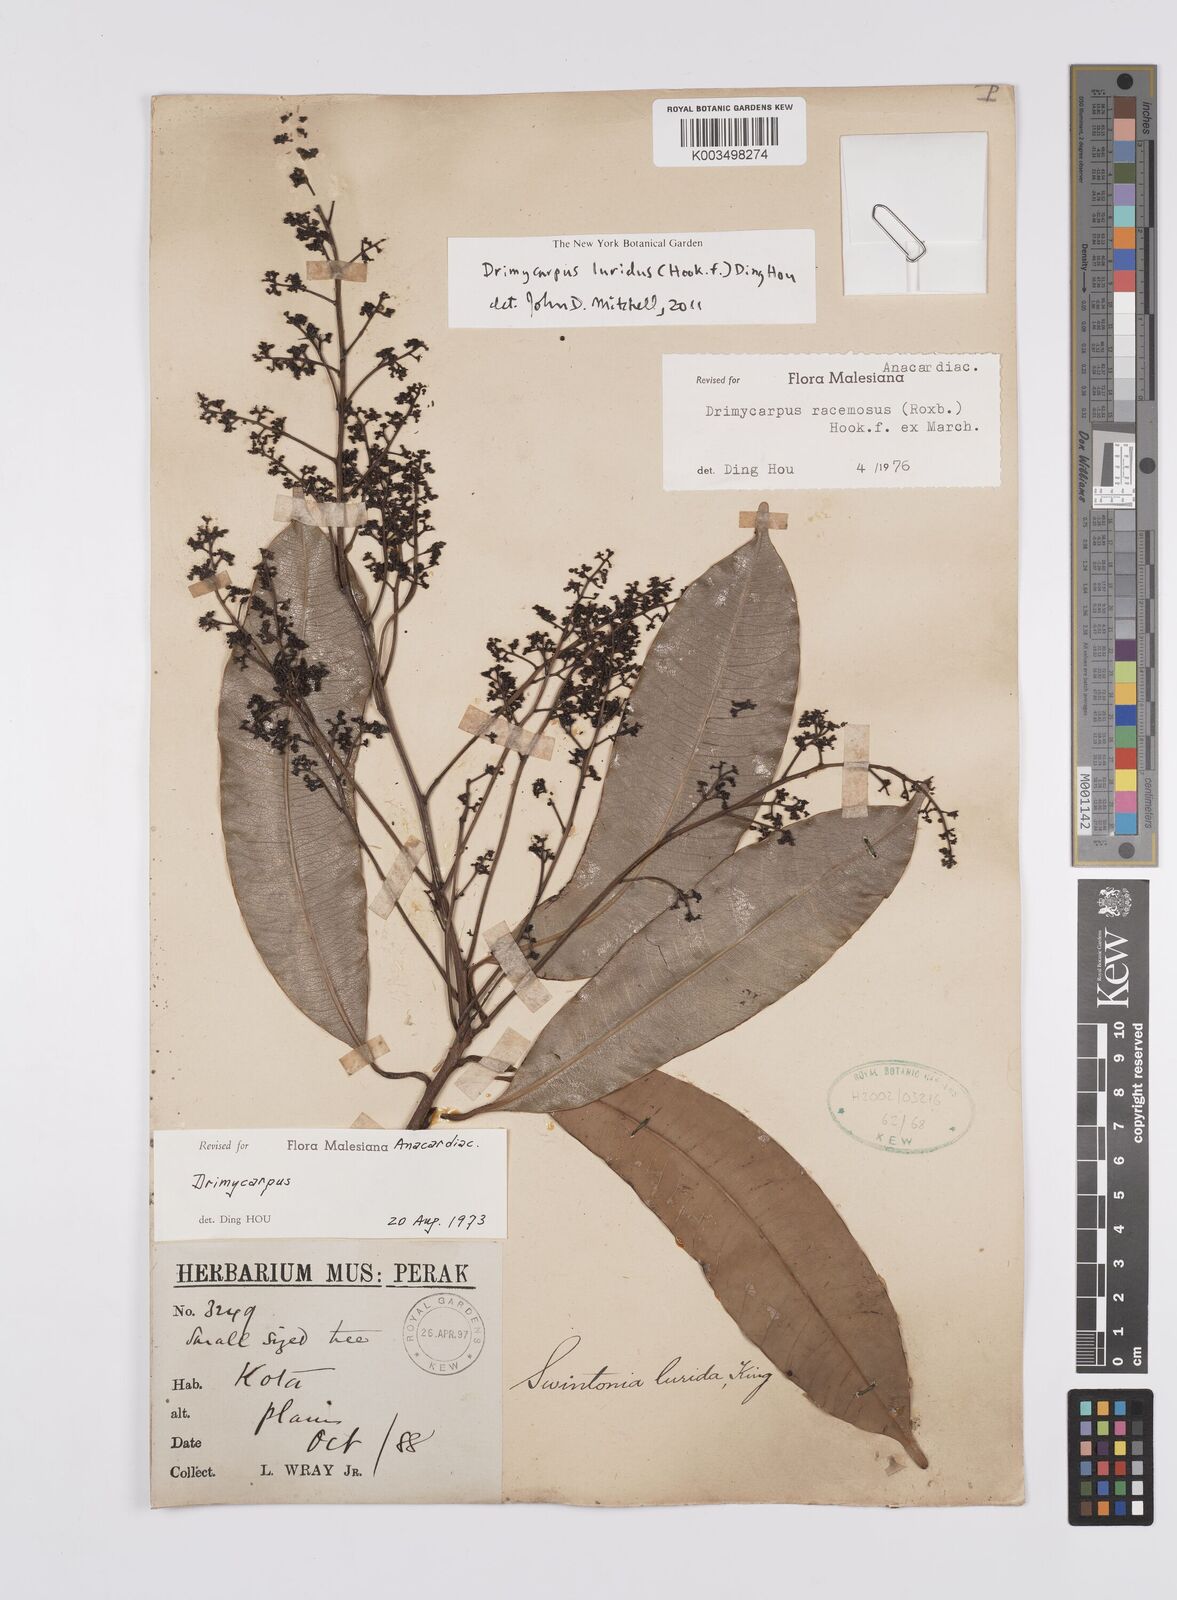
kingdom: Plantae
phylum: Tracheophyta
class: Magnoliopsida
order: Sapindales
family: Anacardiaceae
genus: Drimycarpus
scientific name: Drimycarpus luridus
